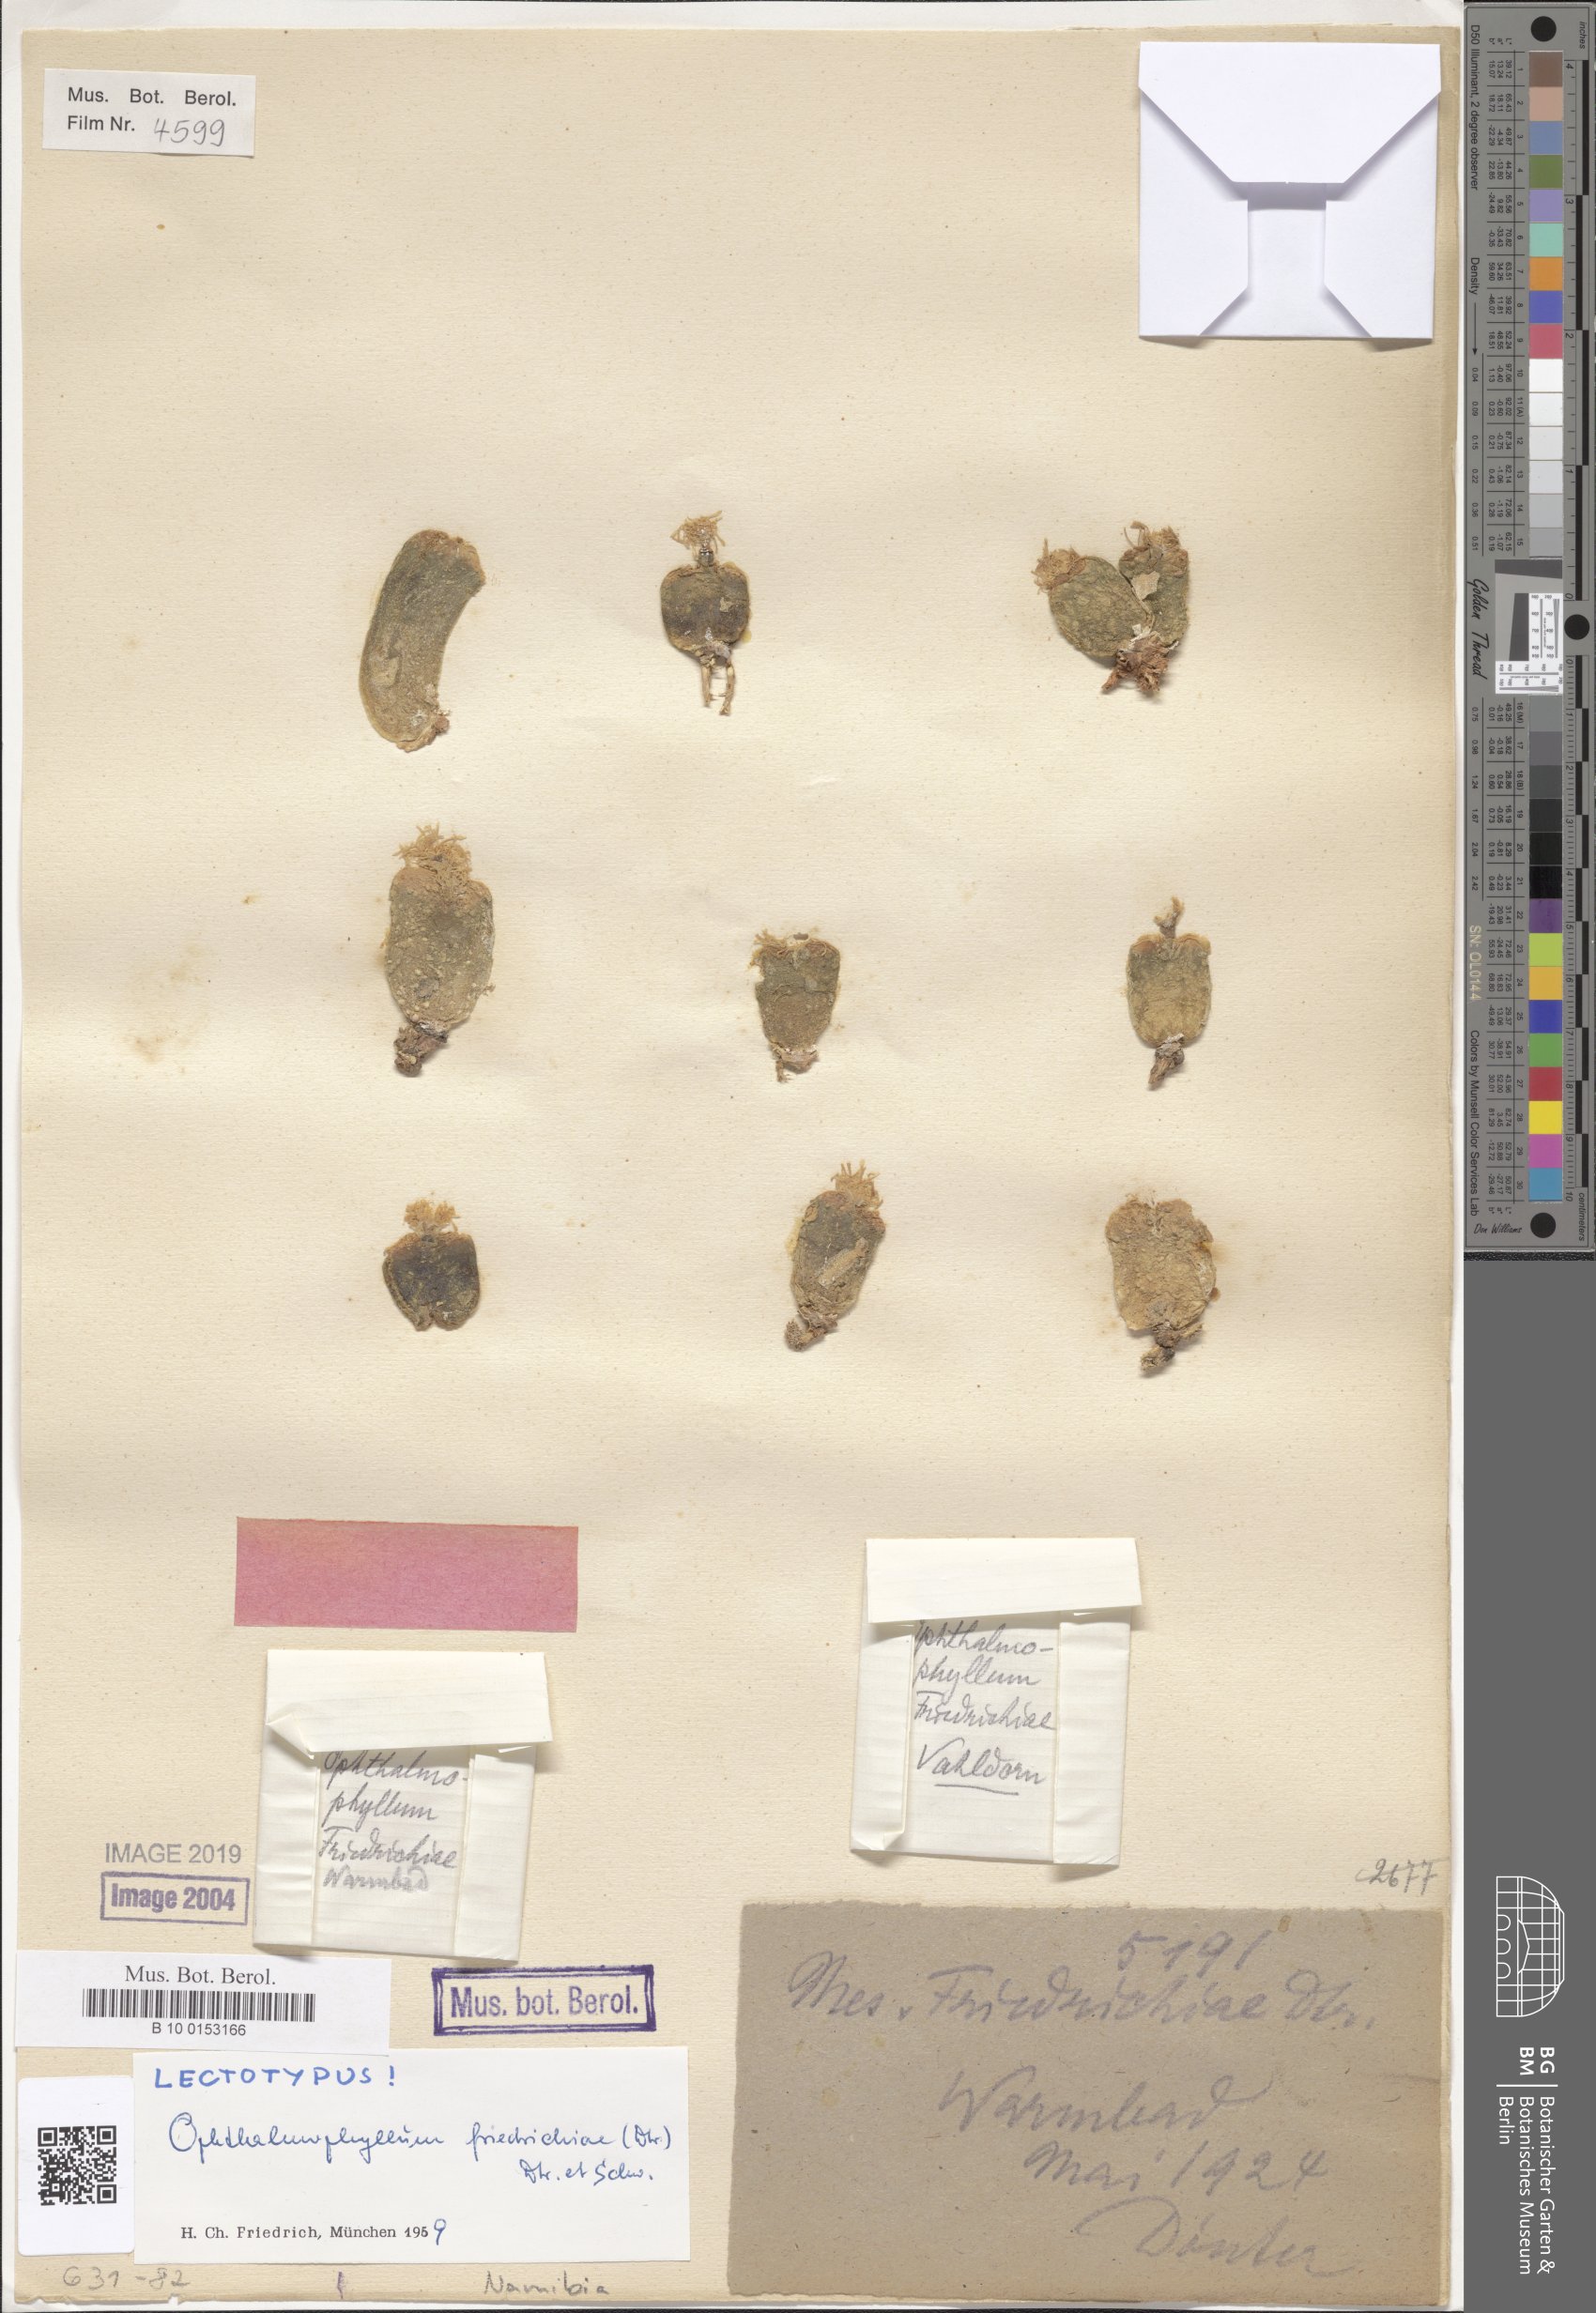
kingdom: Plantae
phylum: Tracheophyta
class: Magnoliopsida
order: Caryophyllales
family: Aizoaceae
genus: Conophytum
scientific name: Conophytum friedrichiae
